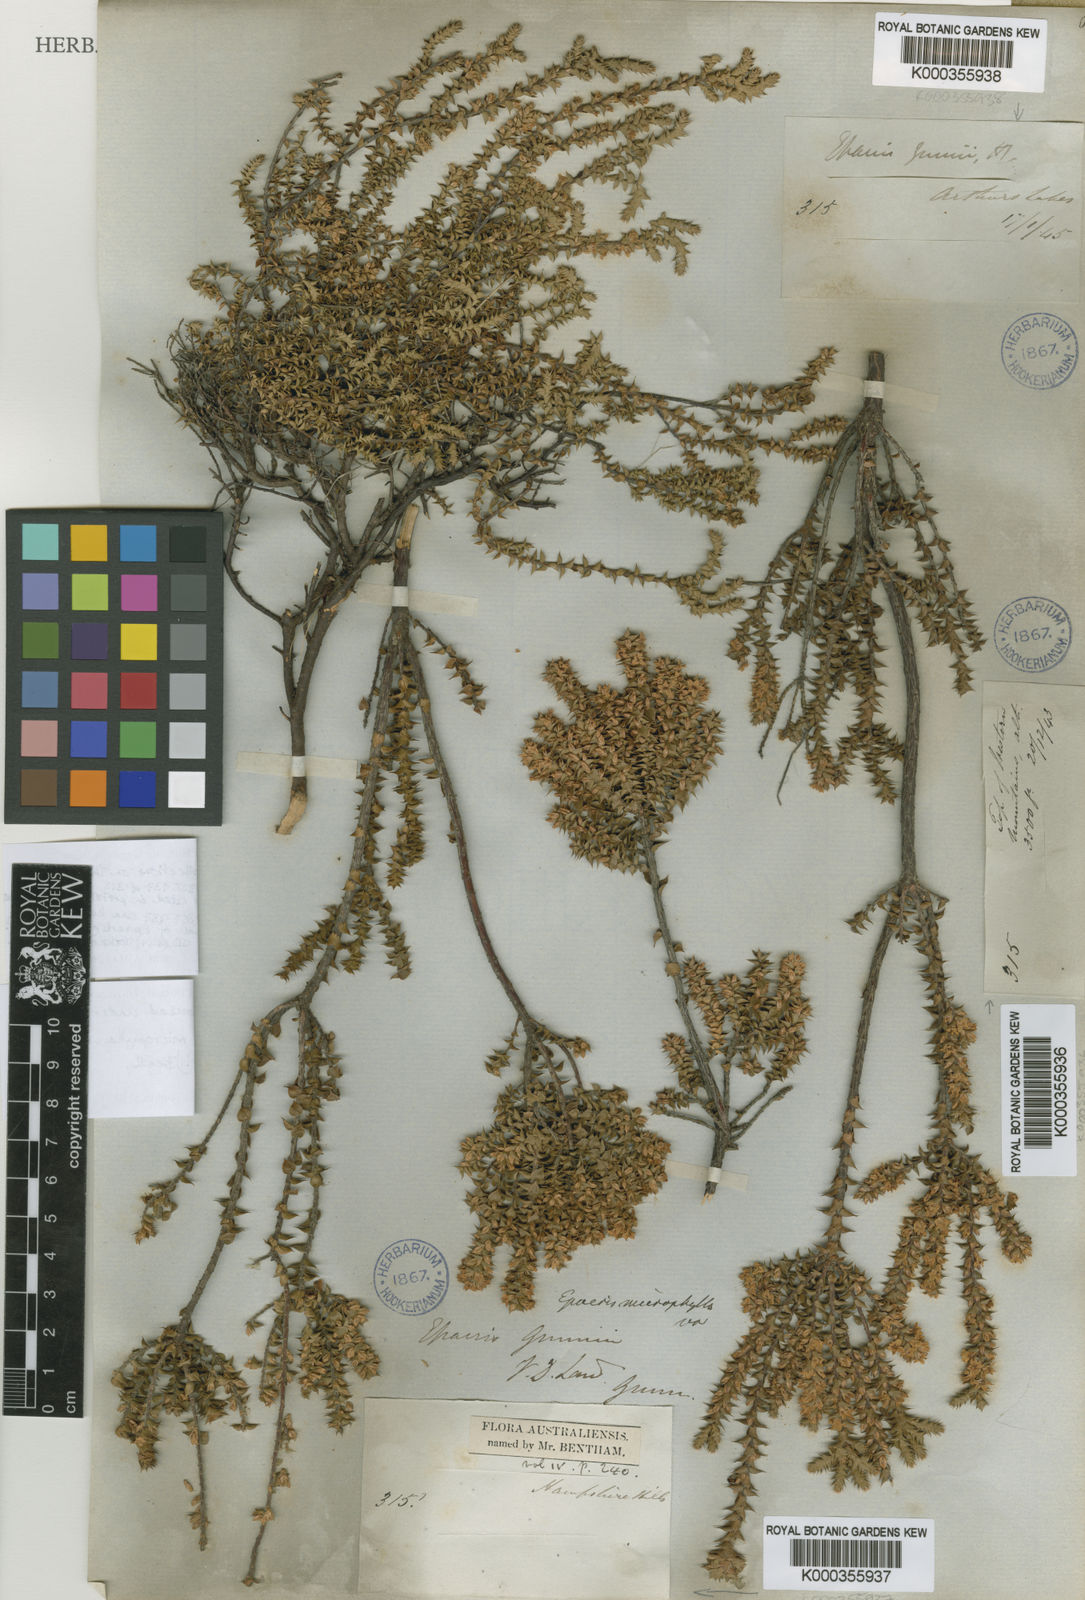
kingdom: Plantae
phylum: Tracheophyta
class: Magnoliopsida
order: Ericales
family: Ericaceae
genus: Epacris
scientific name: Epacris microphylla
